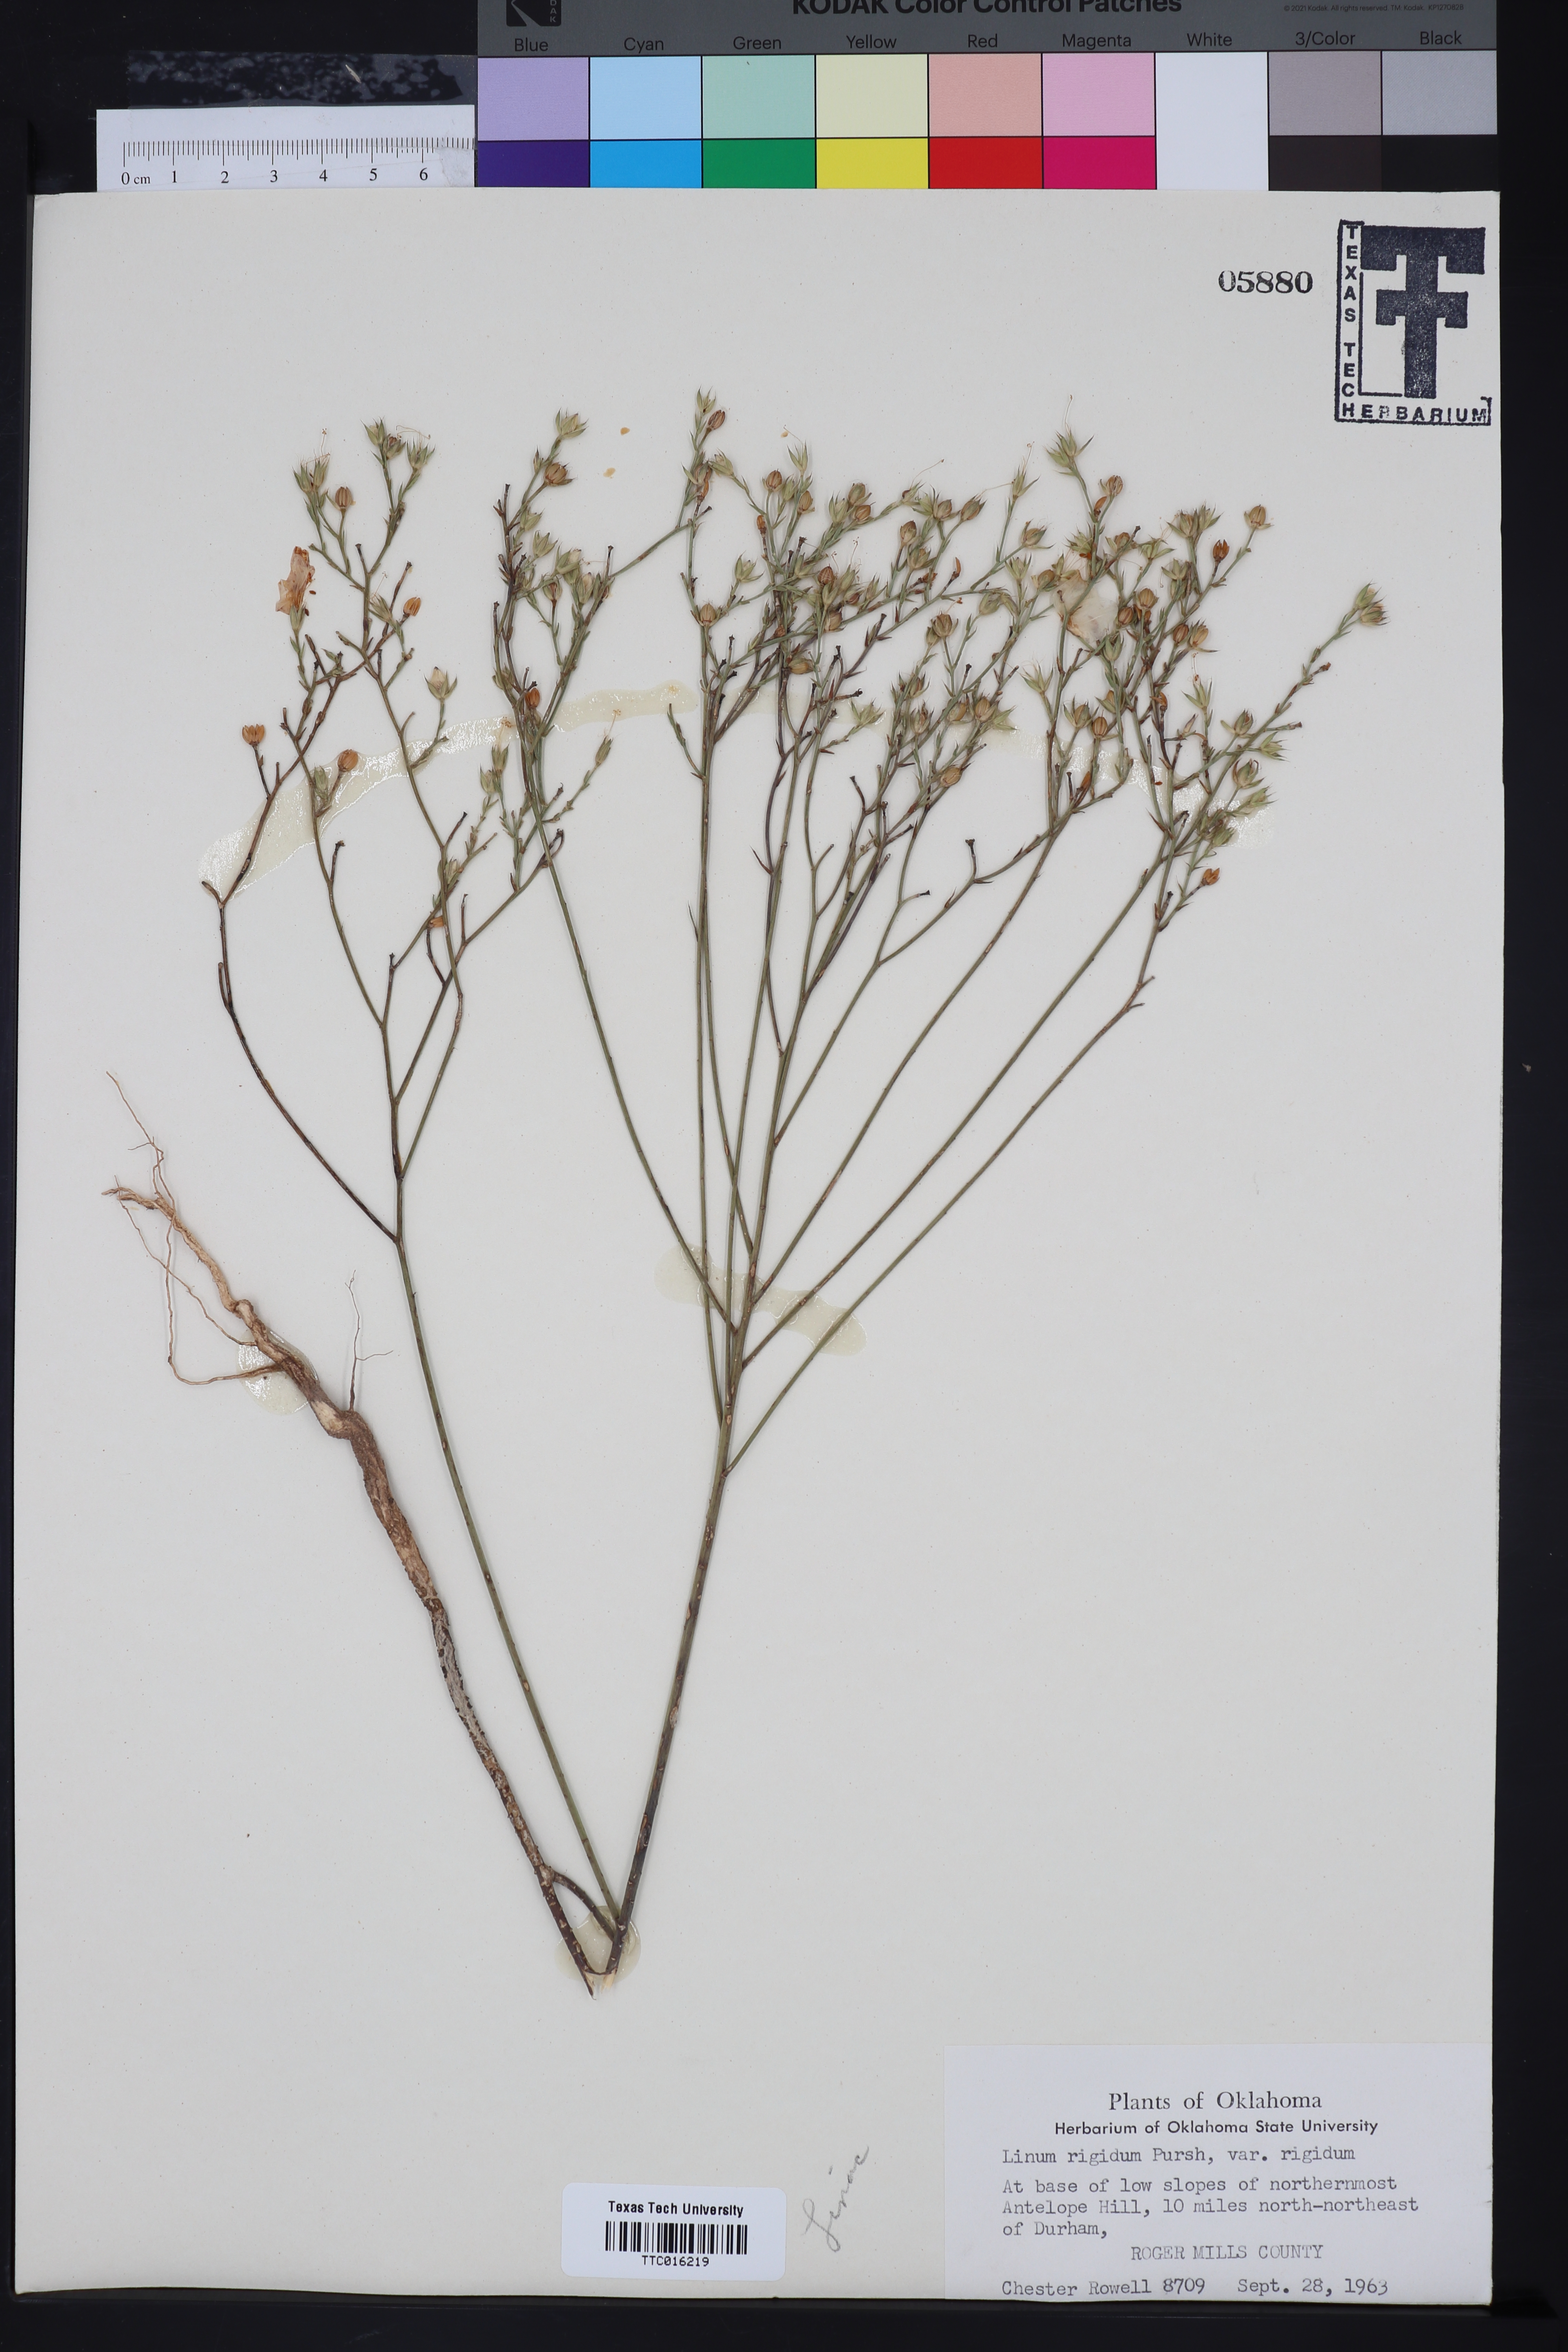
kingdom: Plantae
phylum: Tracheophyta
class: Magnoliopsida
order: Malpighiales
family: Linaceae
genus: Linum
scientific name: Linum rigidum
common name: Stiff-stem flax
